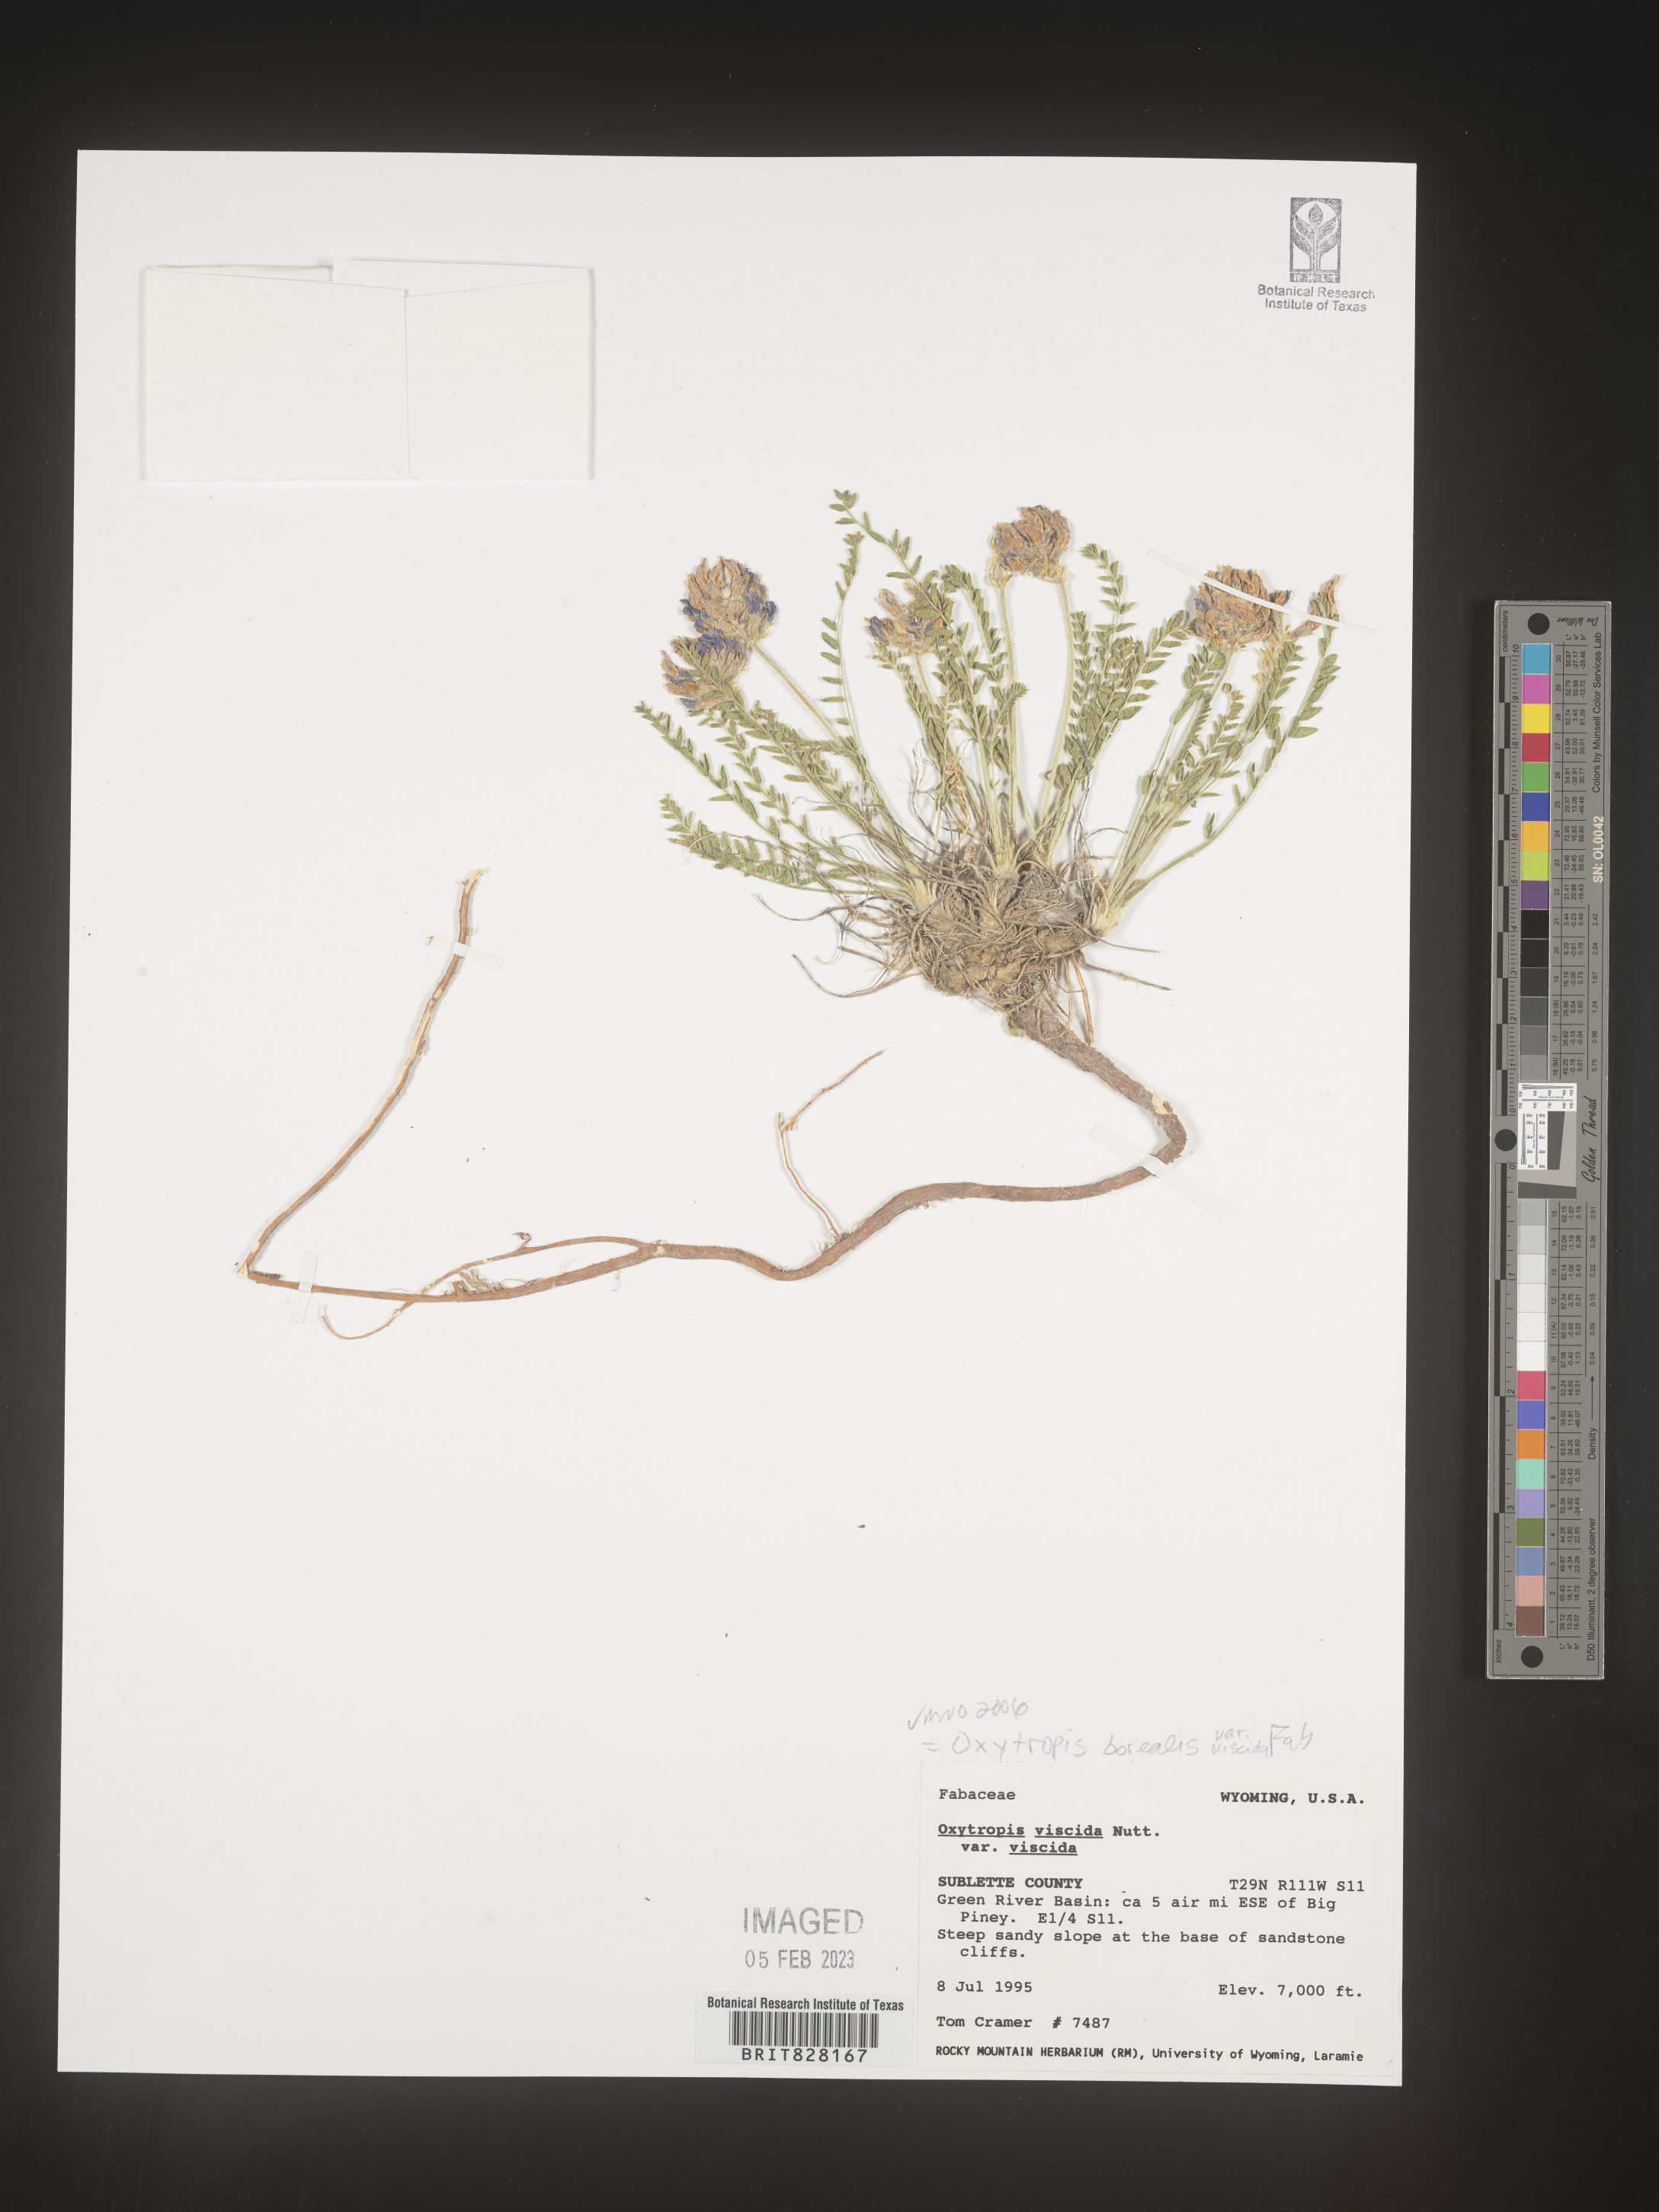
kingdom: Plantae
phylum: Tracheophyta
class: Magnoliopsida
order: Fabales
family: Fabaceae
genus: Oxytropis
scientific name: Oxytropis
